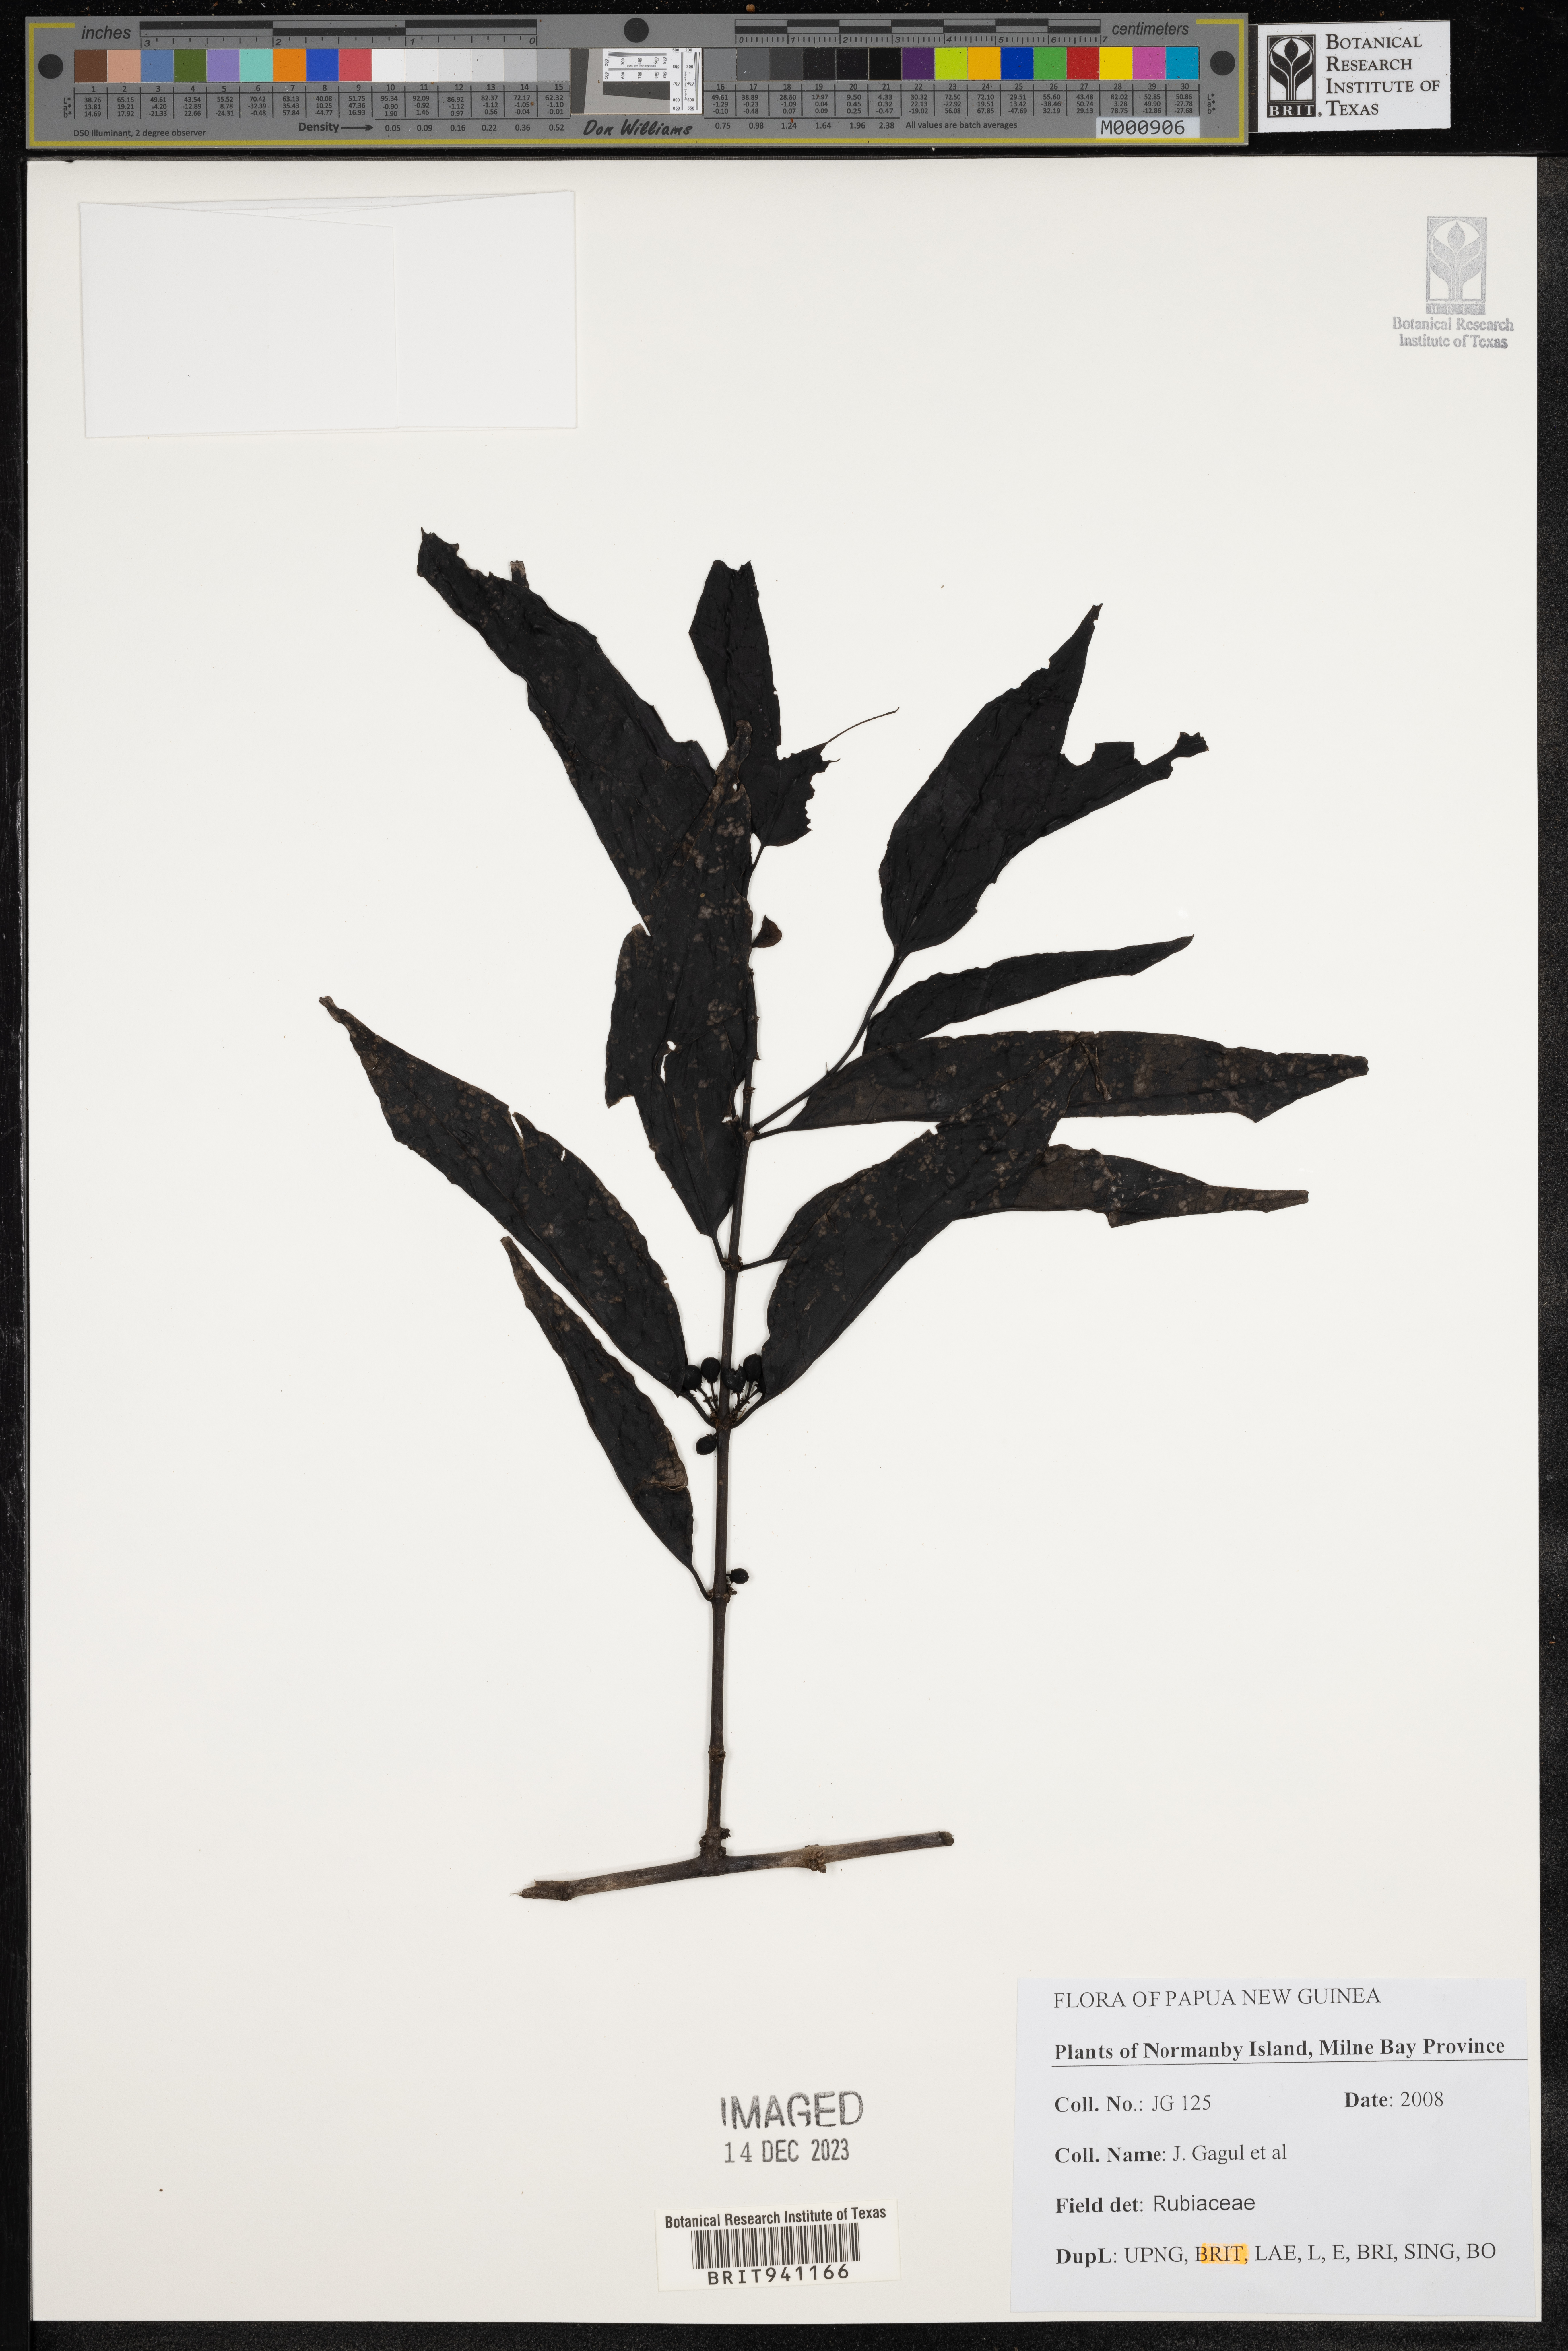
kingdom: Plantae
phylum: Tracheophyta
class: Magnoliopsida
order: Gentianales
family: Rubiaceae
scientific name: Rubiaceae
